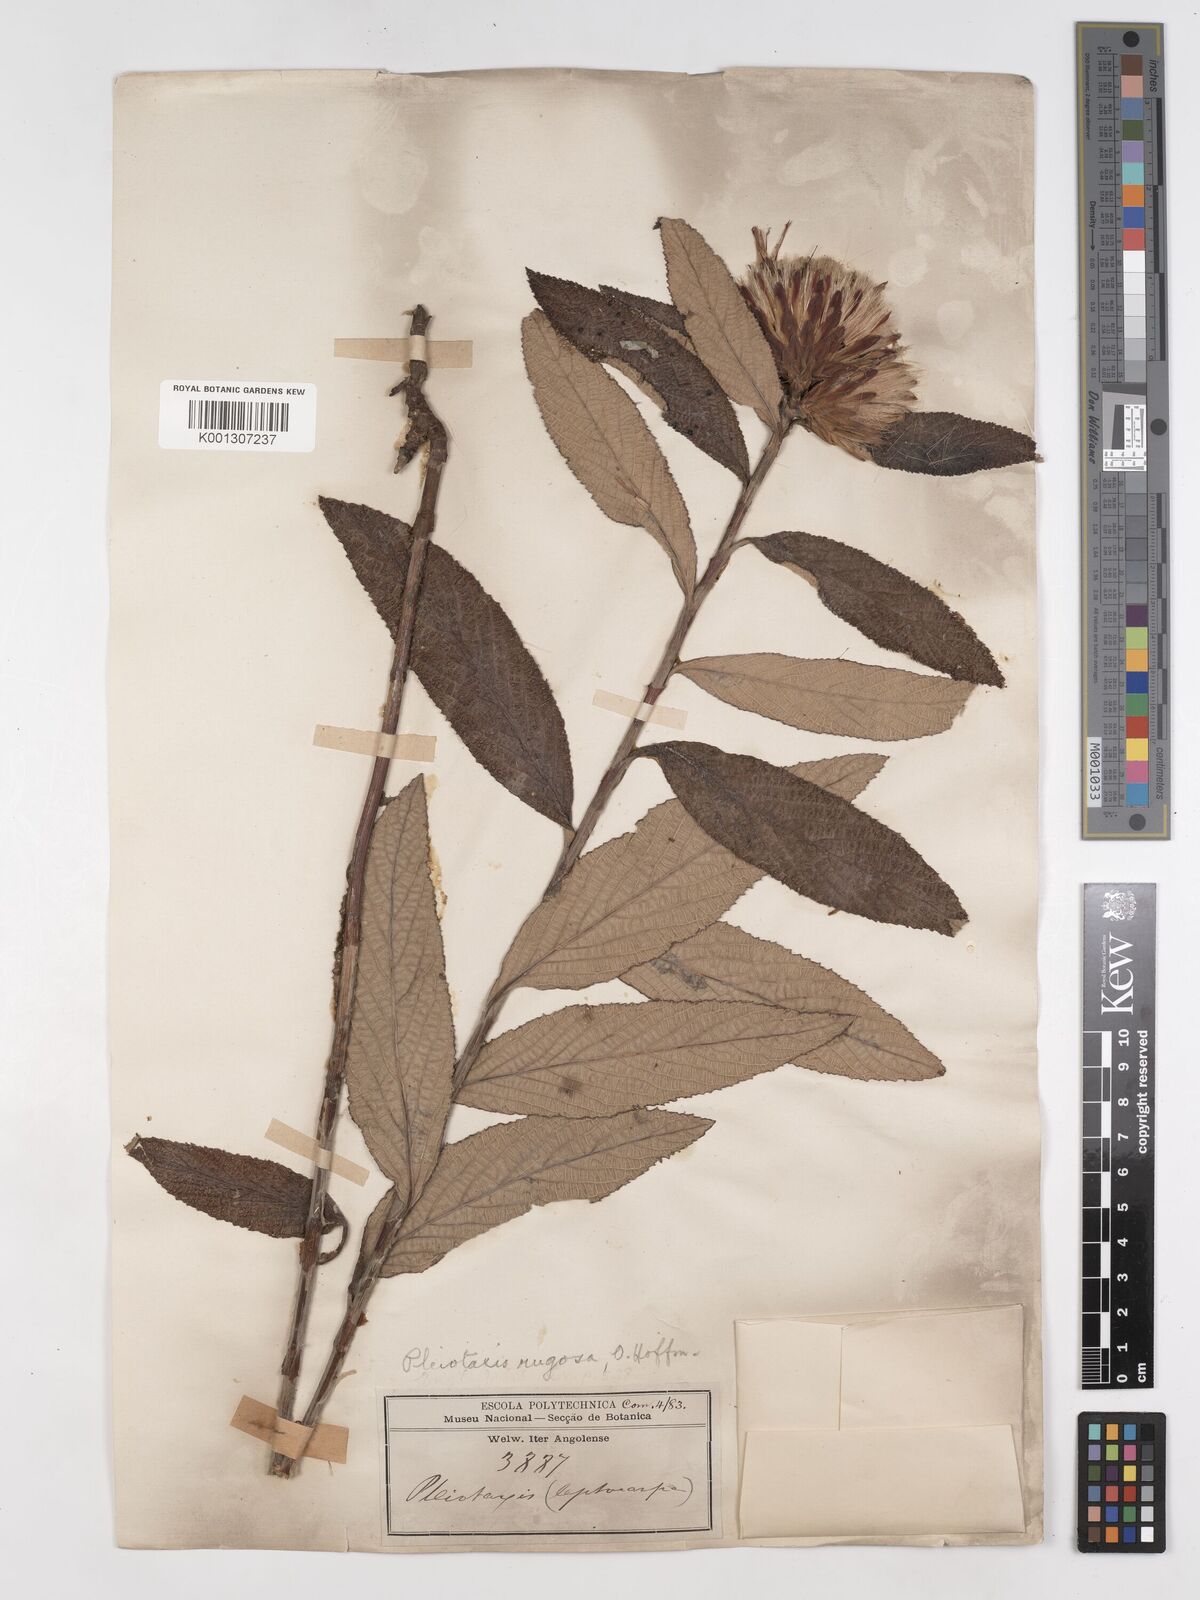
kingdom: Plantae
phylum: Tracheophyta
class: Magnoliopsida
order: Asterales
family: Asteraceae
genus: Pleiotaxis
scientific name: Pleiotaxis rugosa
